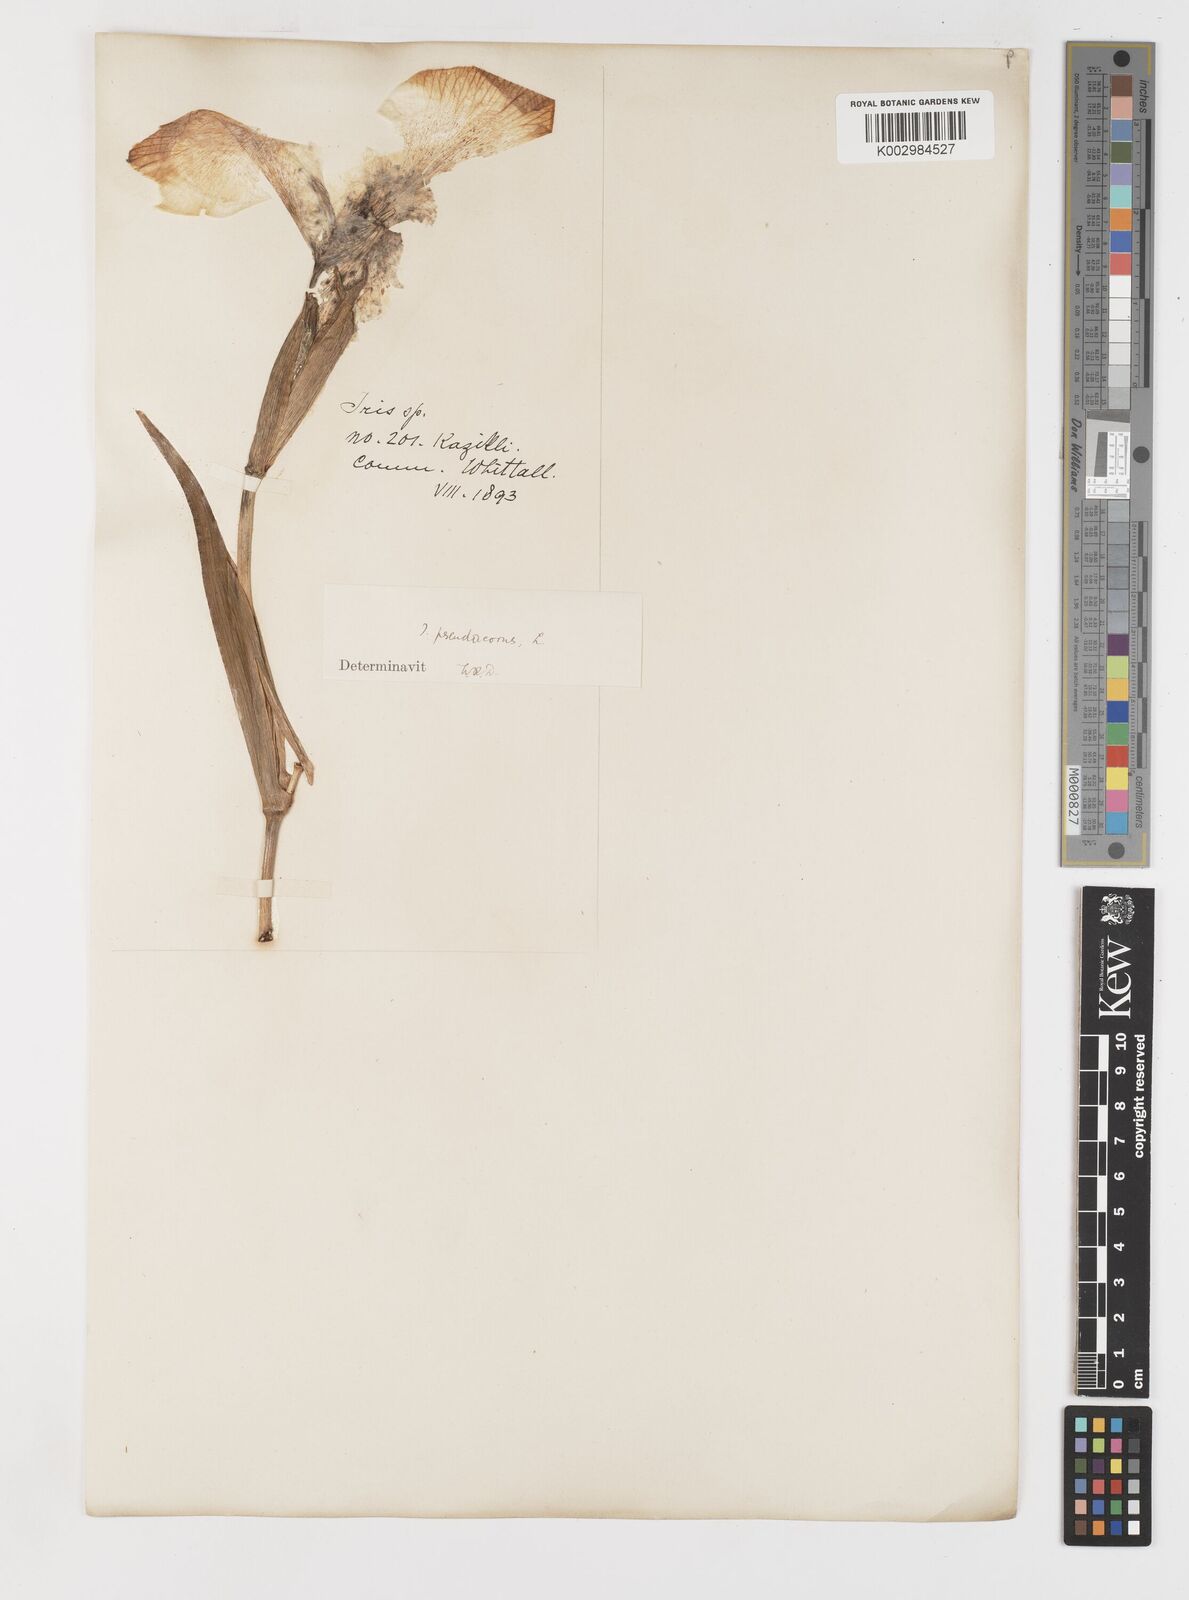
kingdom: Plantae
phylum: Tracheophyta
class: Liliopsida
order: Asparagales
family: Iridaceae
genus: Iris
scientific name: Iris pseudacorus
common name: Yellow flag
